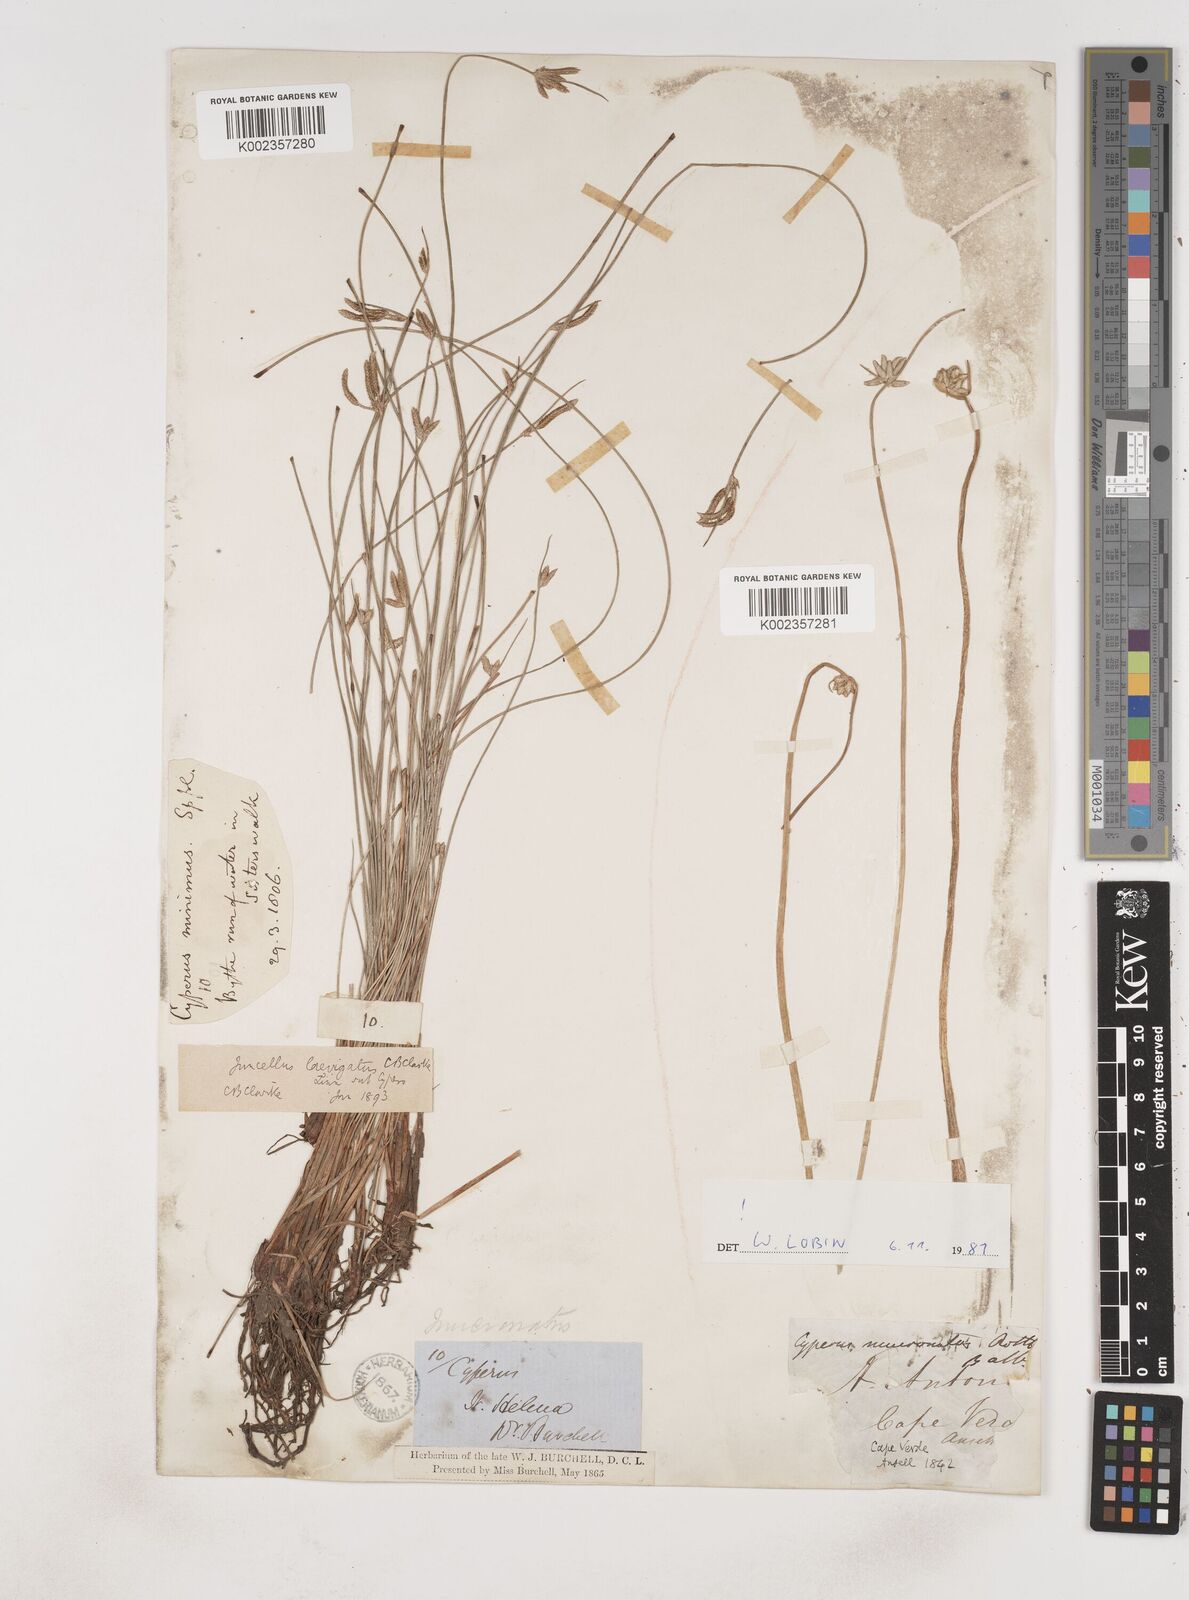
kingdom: Plantae
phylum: Tracheophyta
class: Liliopsida
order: Poales
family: Cyperaceae
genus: Cyperus
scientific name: Cyperus laevigatus
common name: Smooth flat sedge
